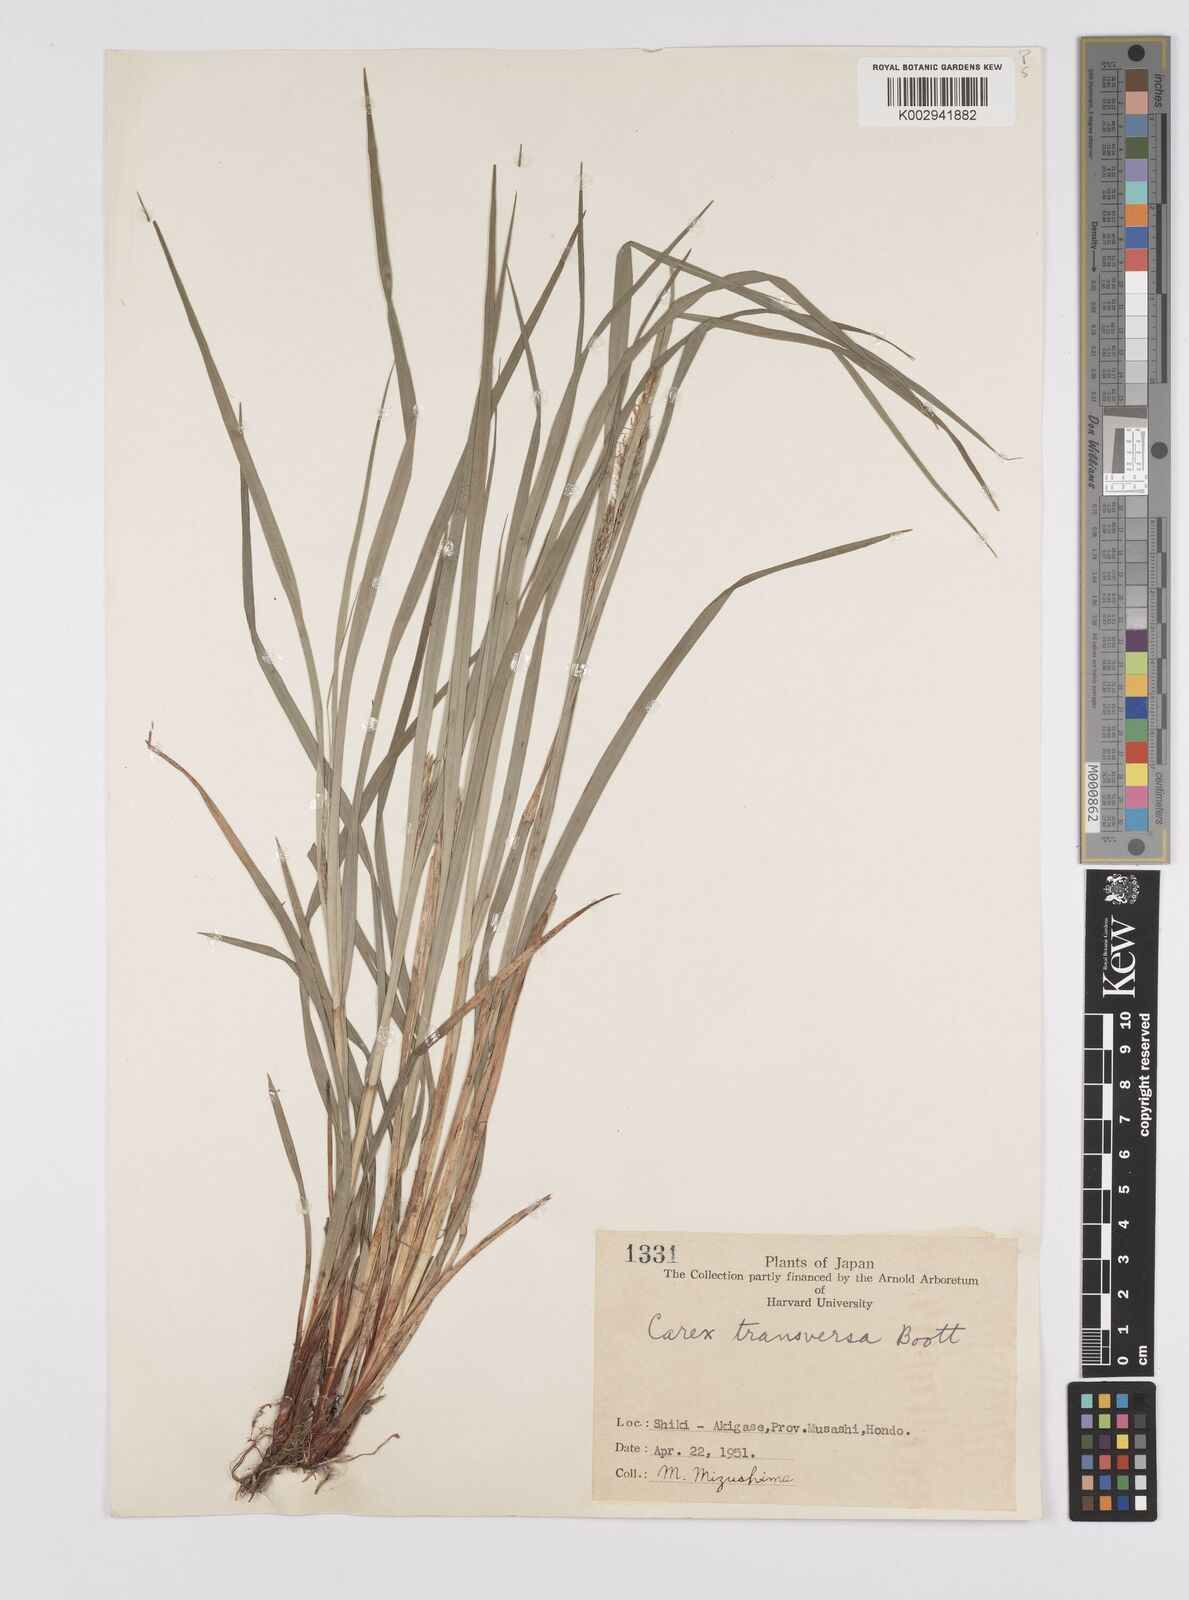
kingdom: Plantae
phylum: Tracheophyta
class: Liliopsida
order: Poales
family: Cyperaceae
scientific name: Cyperaceae
